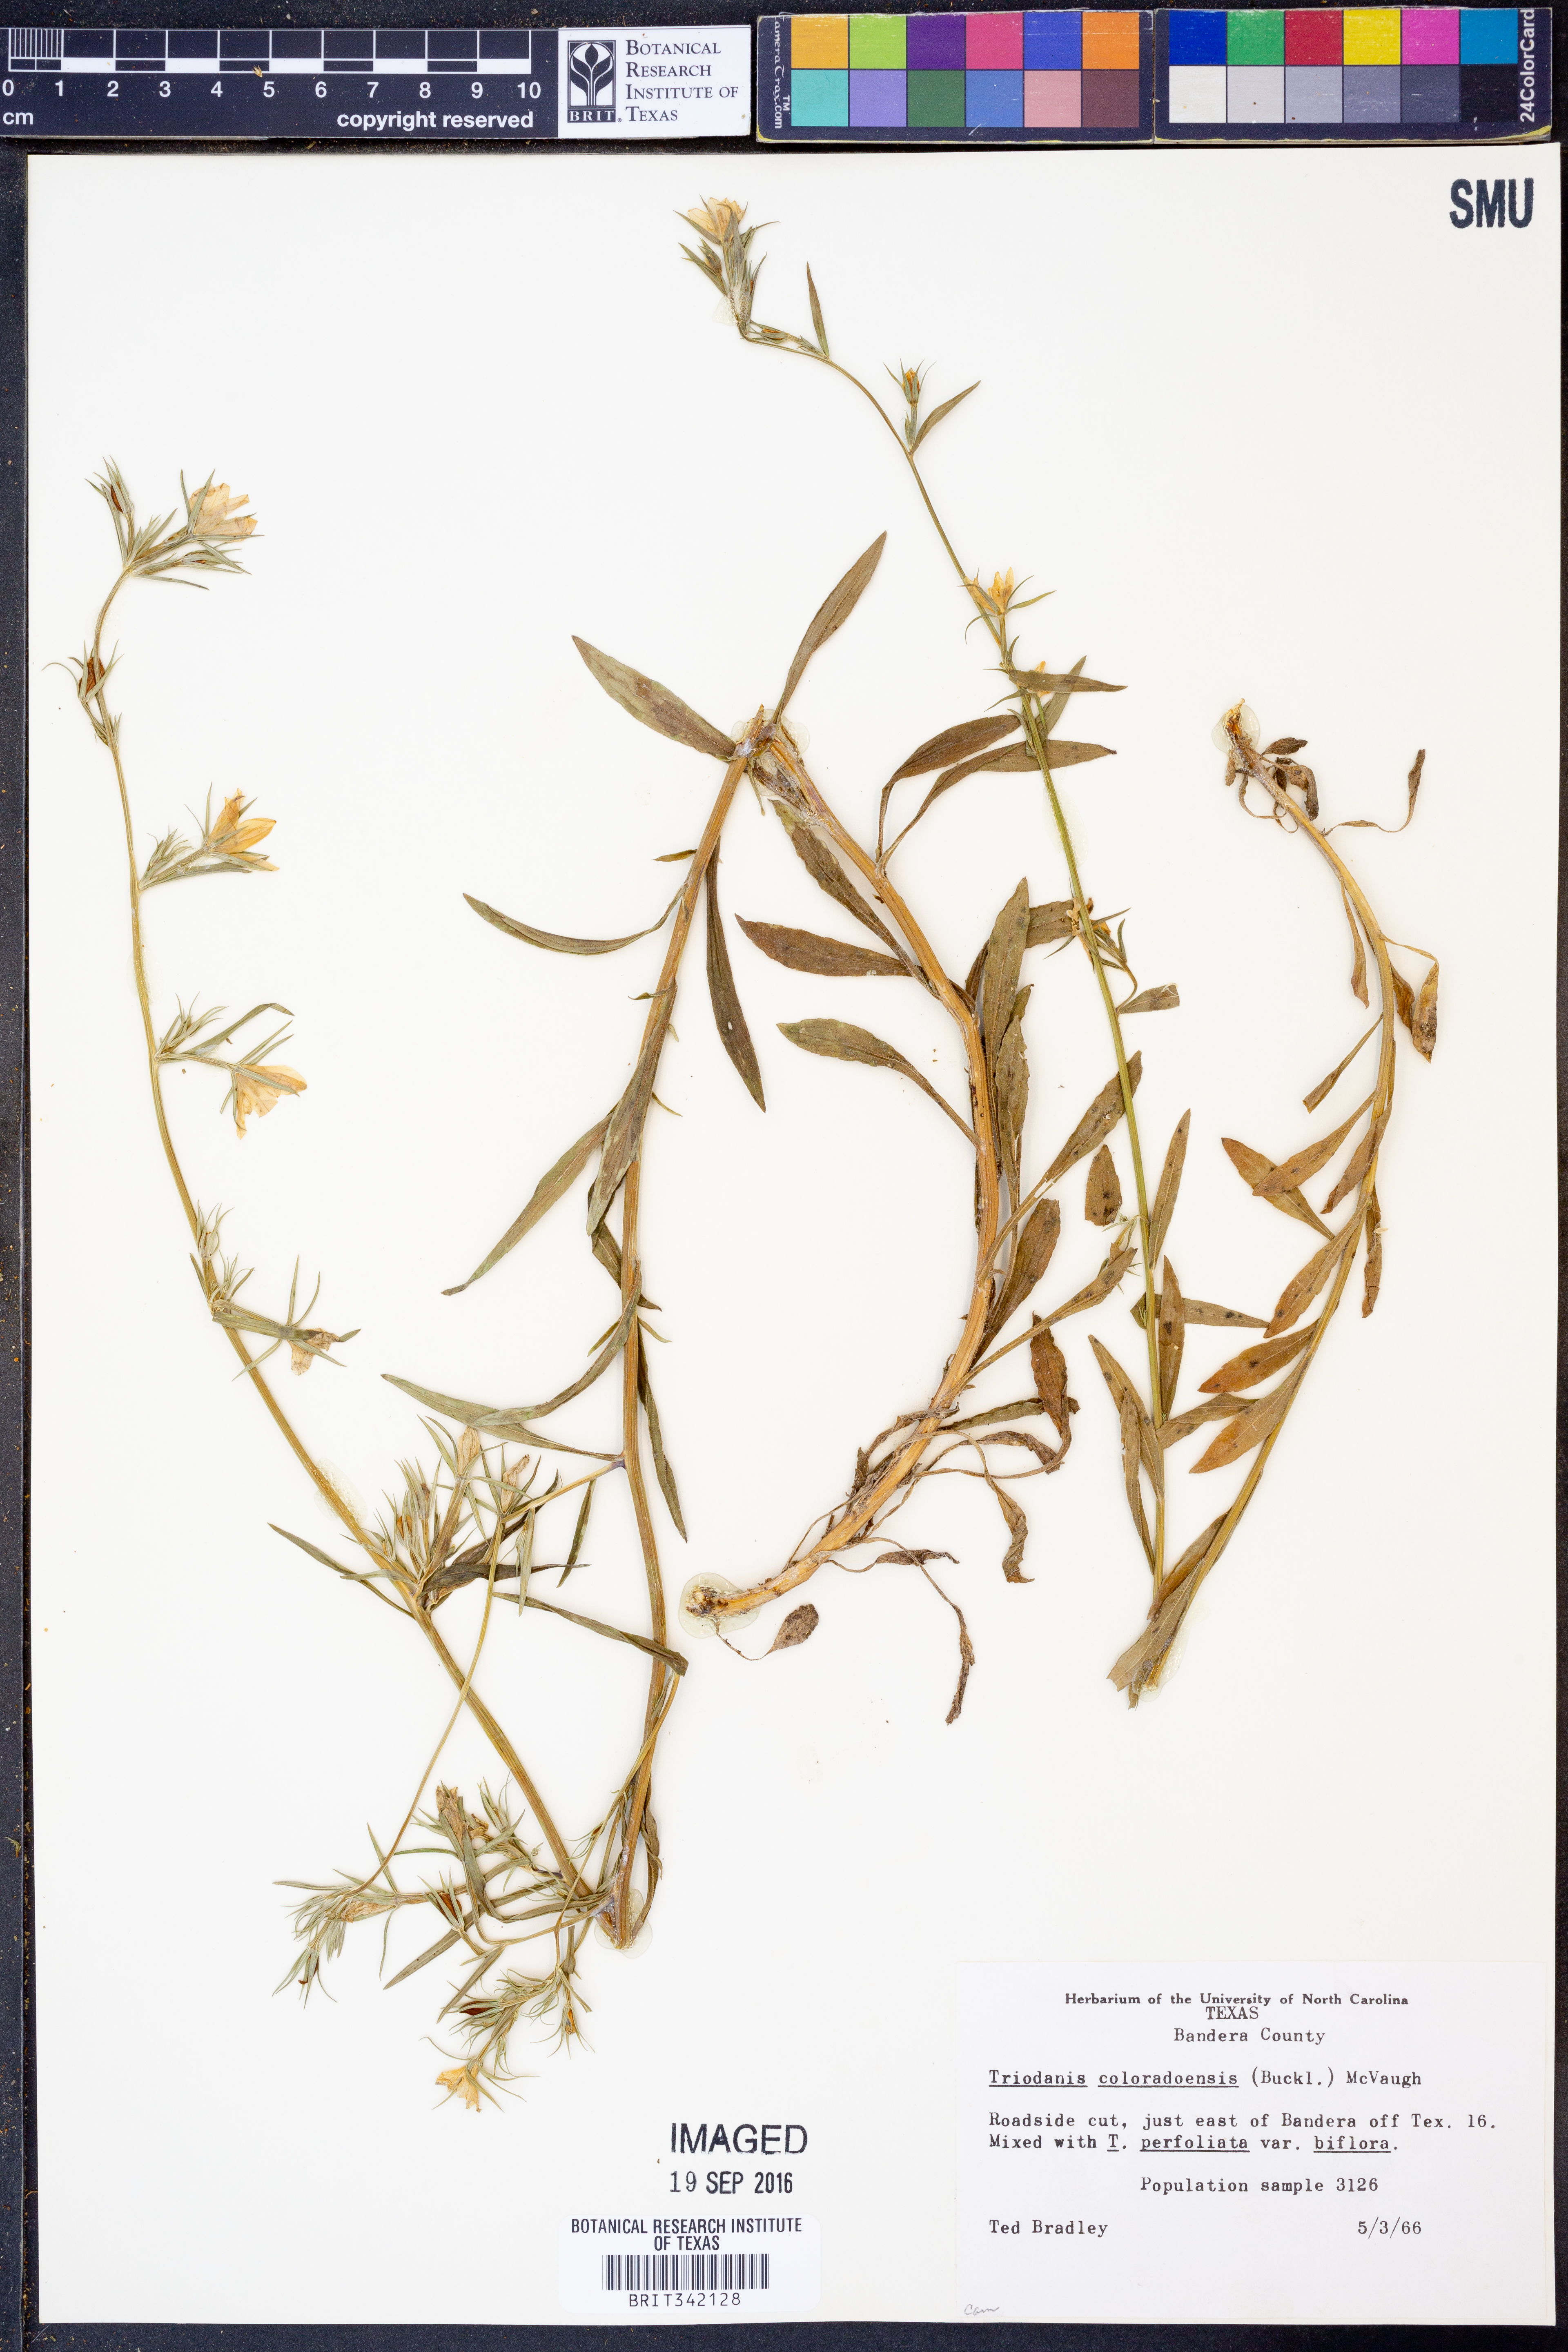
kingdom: Plantae
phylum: Tracheophyta
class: Magnoliopsida
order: Asterales
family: Campanulaceae
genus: Triodanis
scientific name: Triodanis coloradoensis
